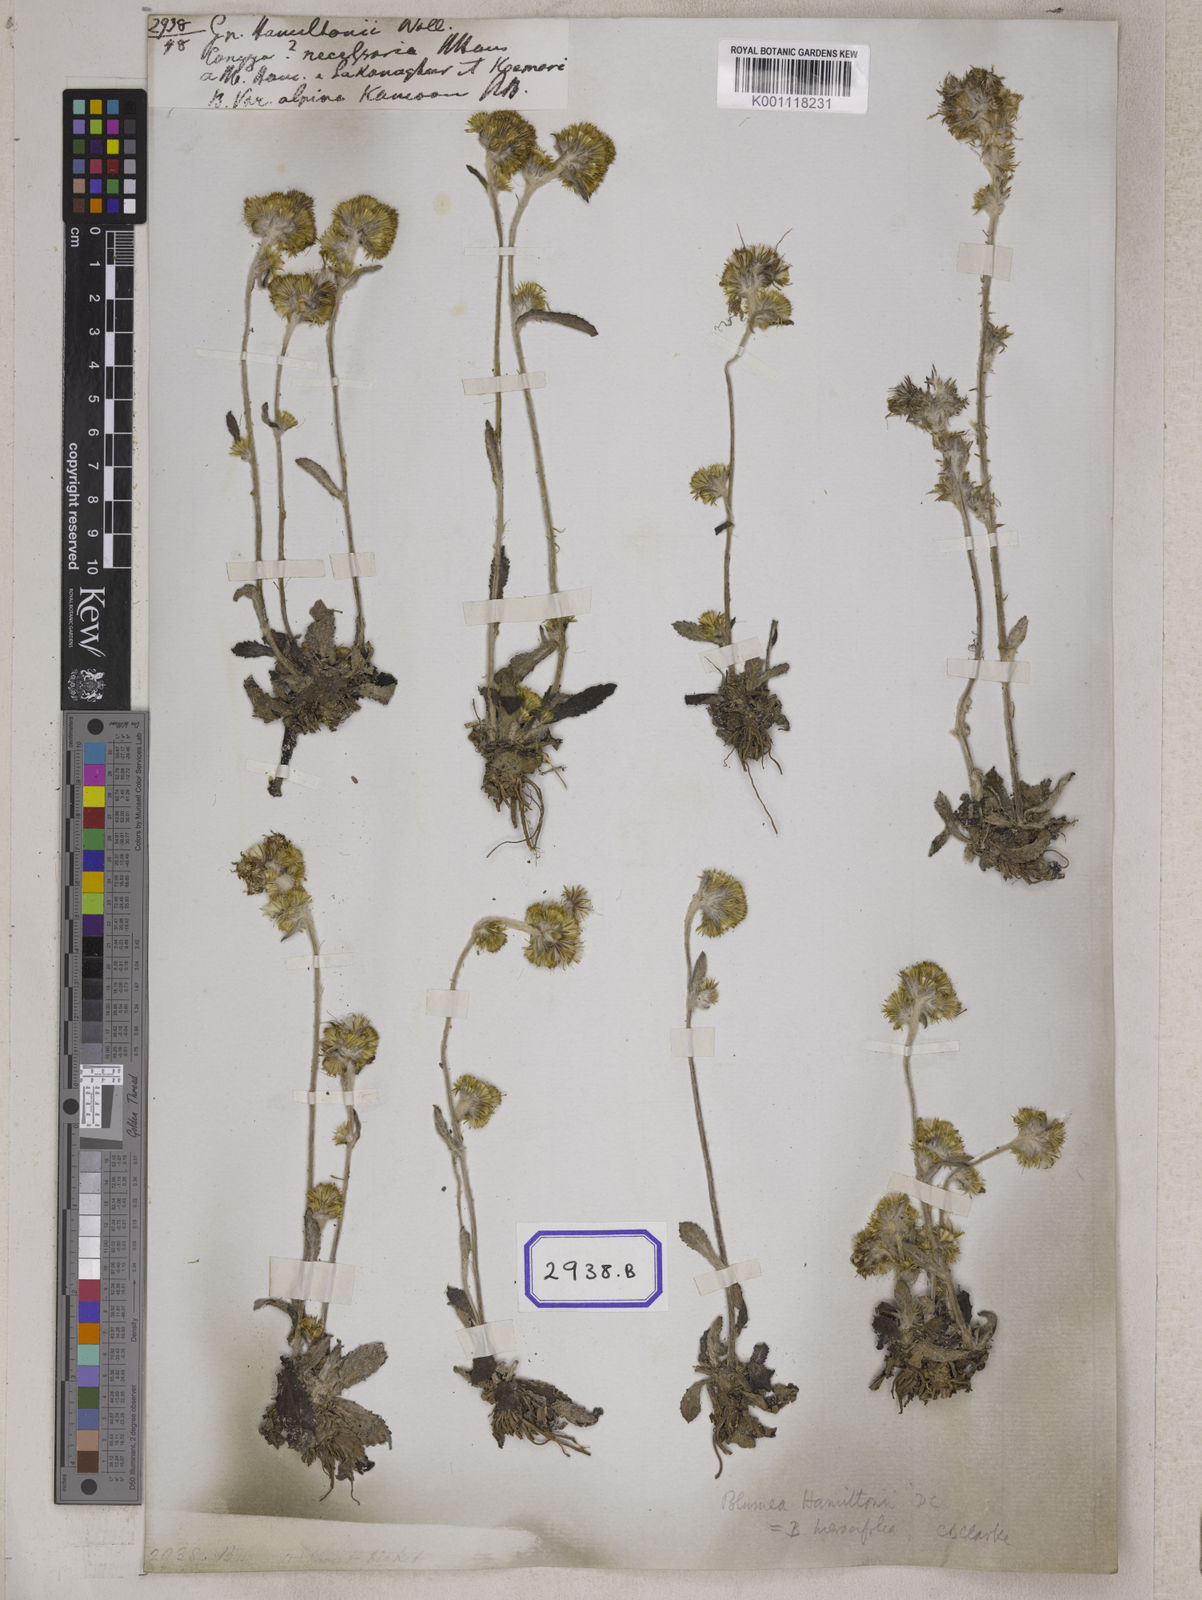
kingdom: Plantae
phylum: Tracheophyta
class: Magnoliopsida
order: Asterales
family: Asteraceae
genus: Blumea
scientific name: Blumea hamiltonii
